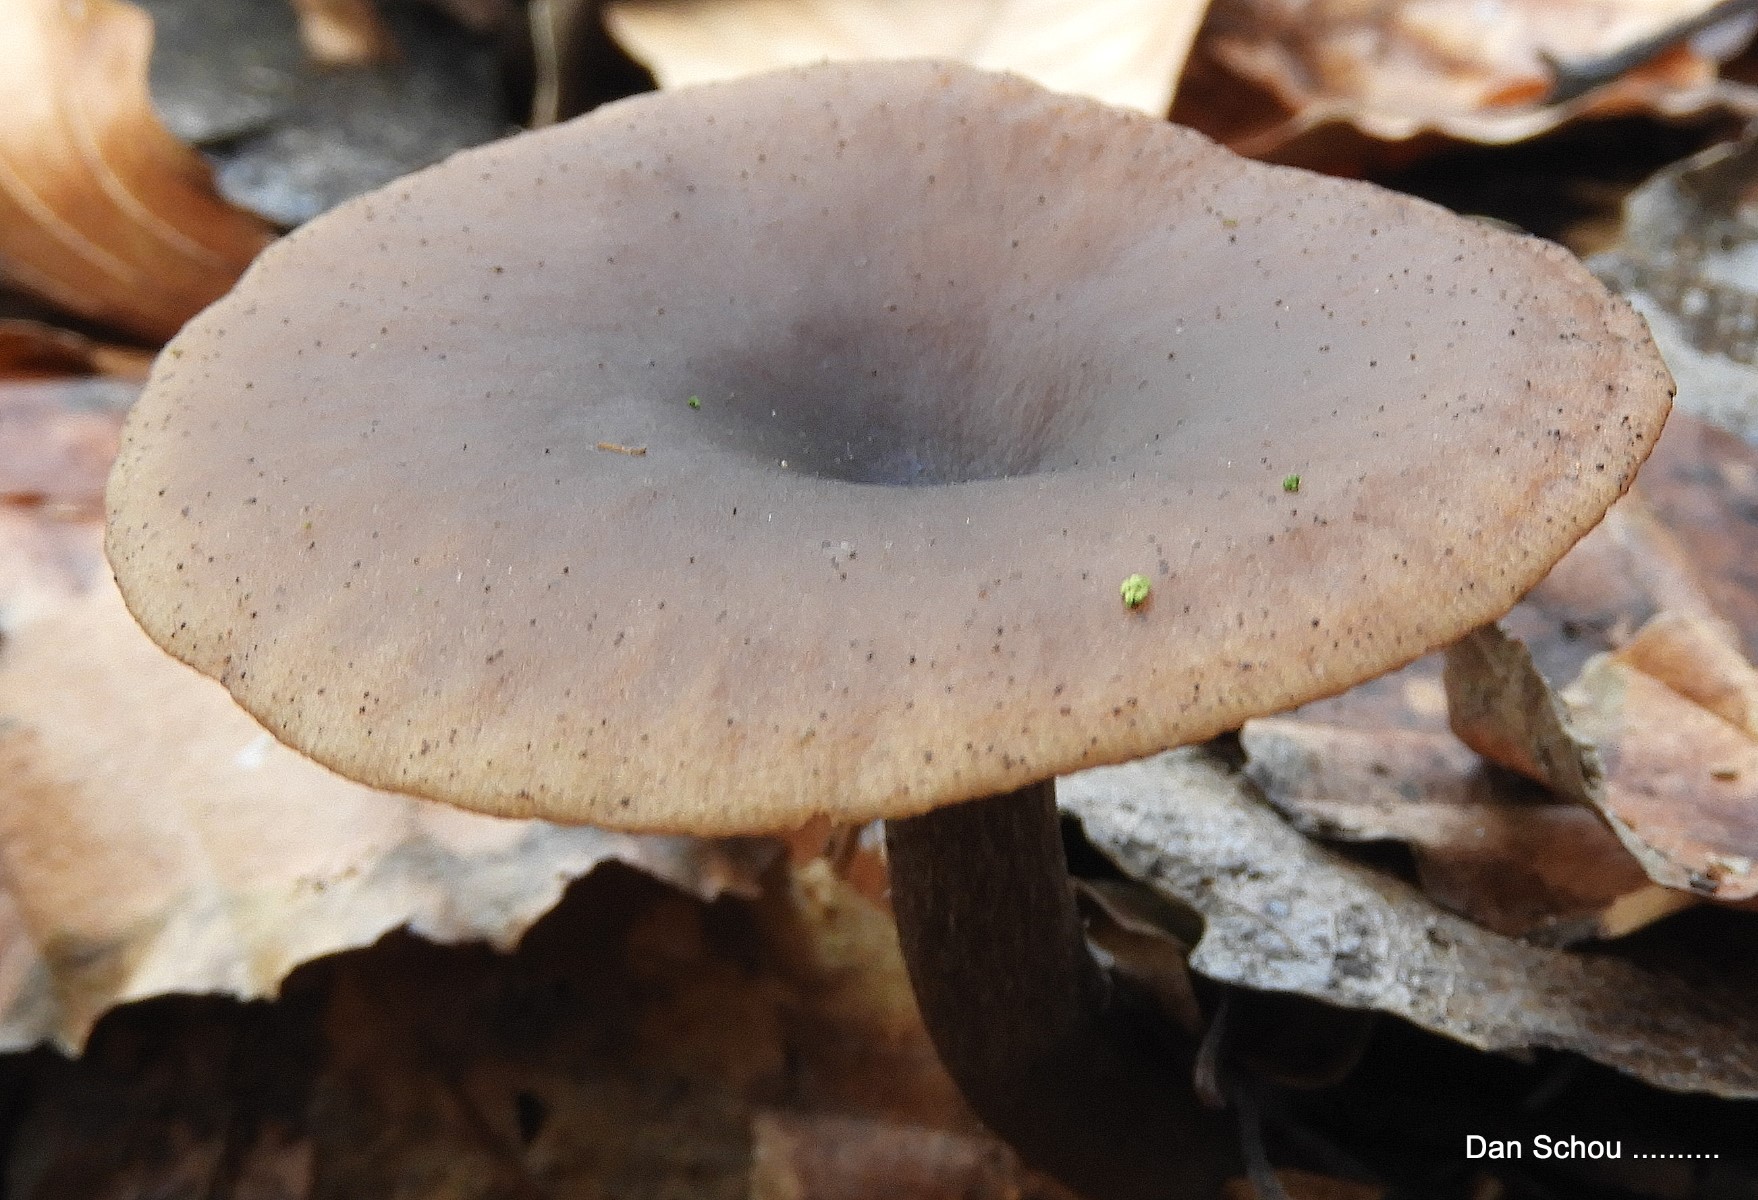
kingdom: Fungi
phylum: Basidiomycota
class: Agaricomycetes
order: Agaricales
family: Pseudoclitocybaceae
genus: Pseudoclitocybe
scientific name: Pseudoclitocybe cyathiformis
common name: almindelig bægertragthat
